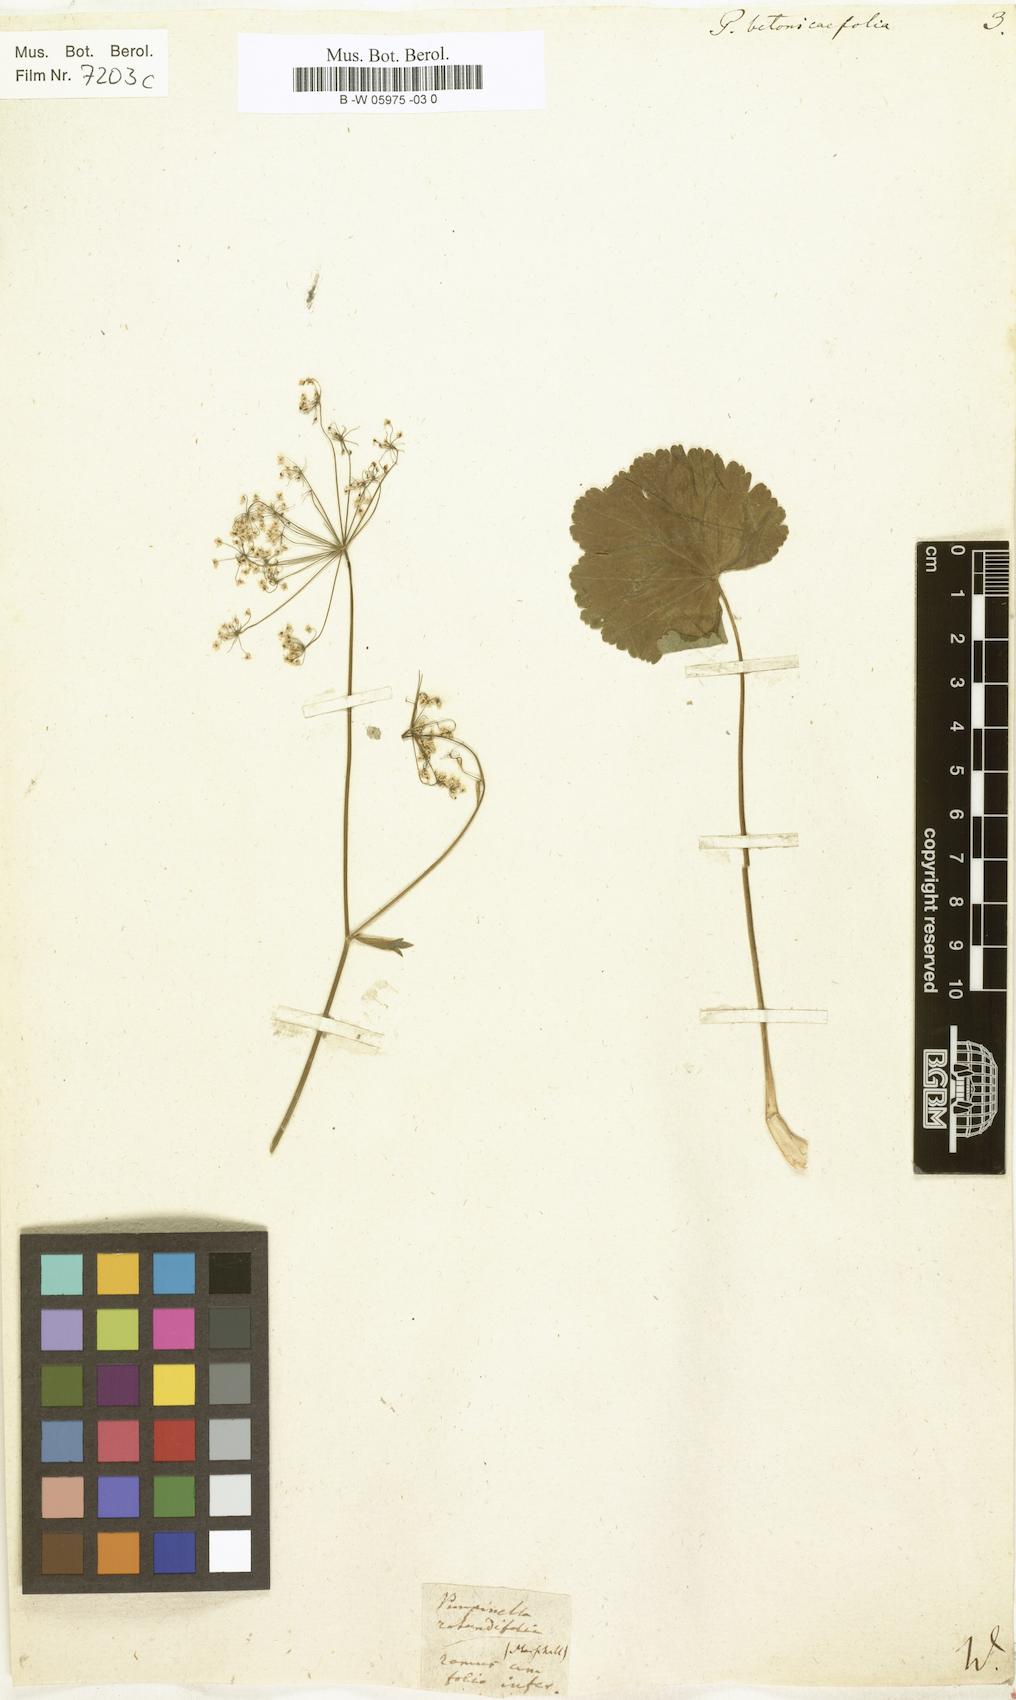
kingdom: Plantae
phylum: Tracheophyta
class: Magnoliopsida
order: Apiales
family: Apiaceae
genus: Pimpinella
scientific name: Pimpinella tripartita
